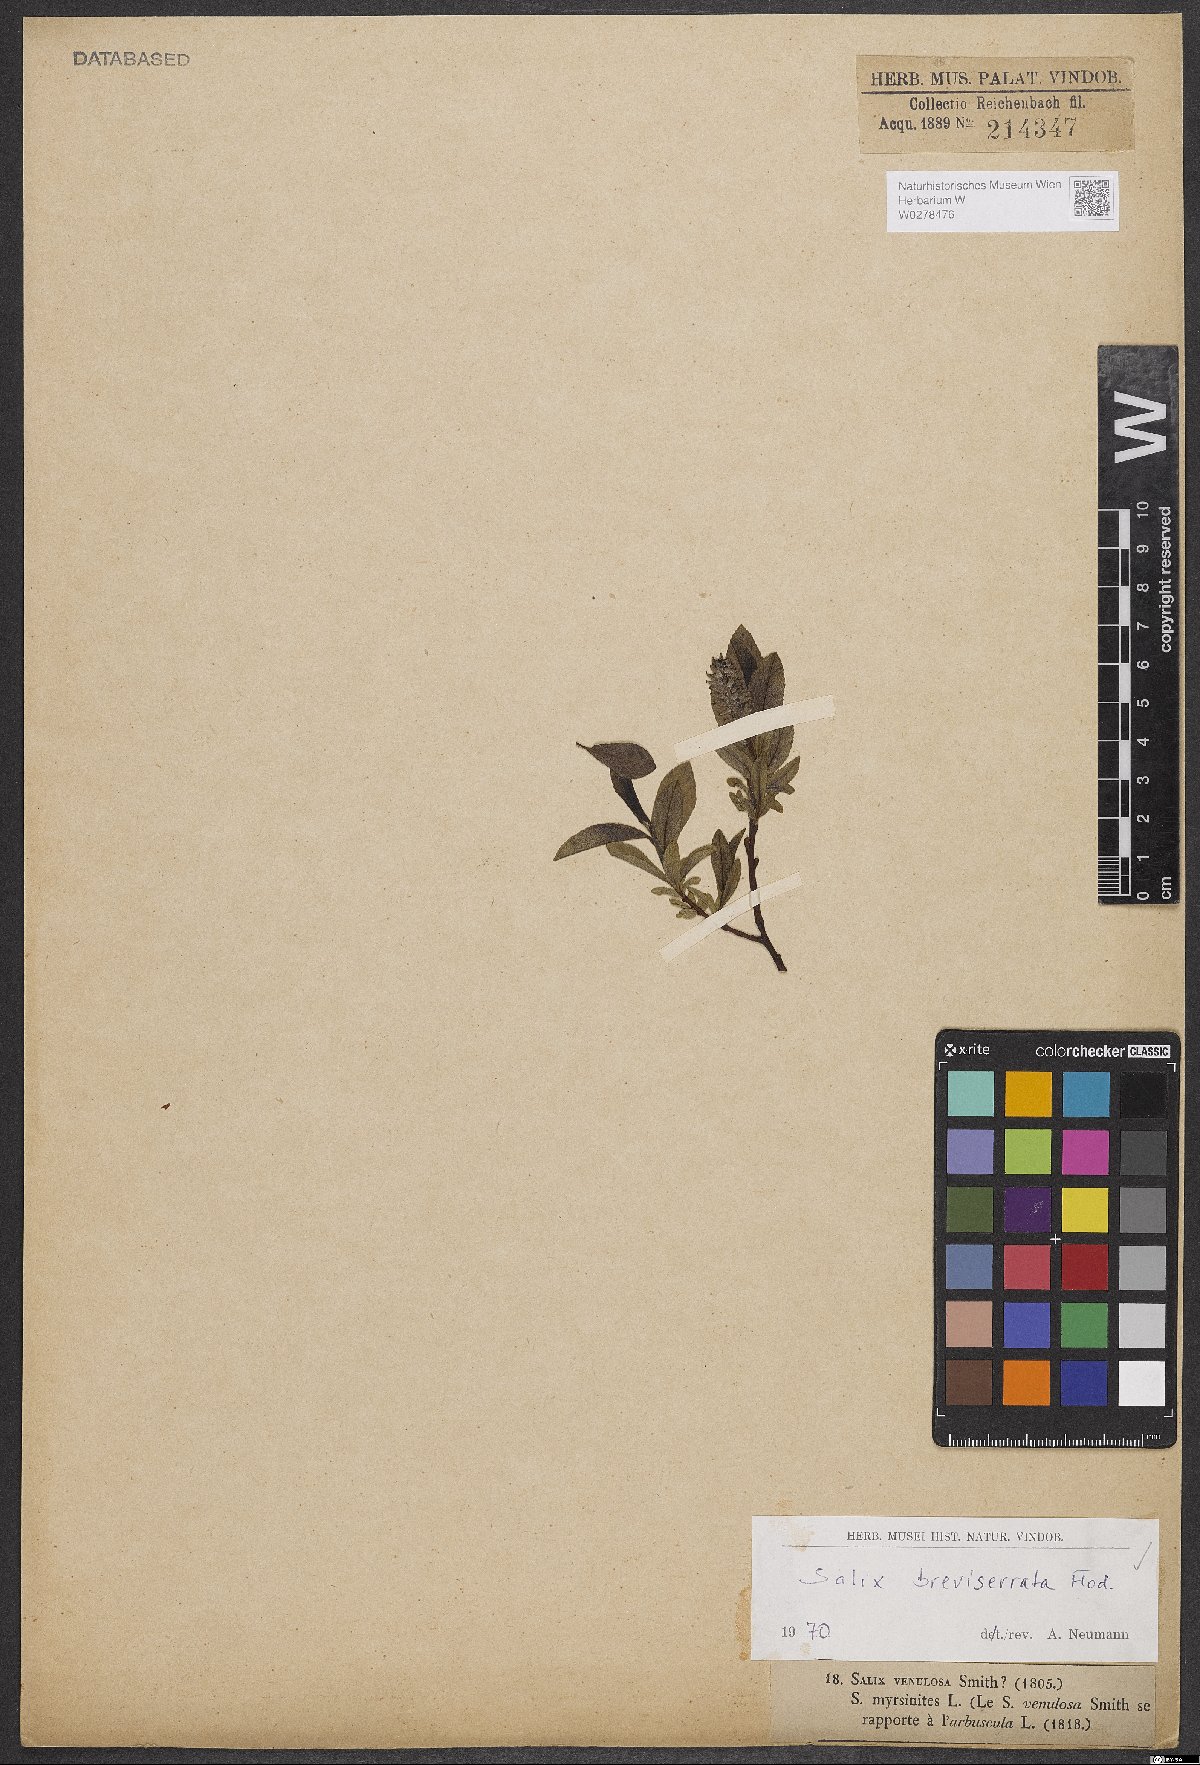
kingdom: Plantae
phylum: Tracheophyta
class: Magnoliopsida
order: Malpighiales
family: Salicaceae
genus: Salix
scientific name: Salix breviserrata
